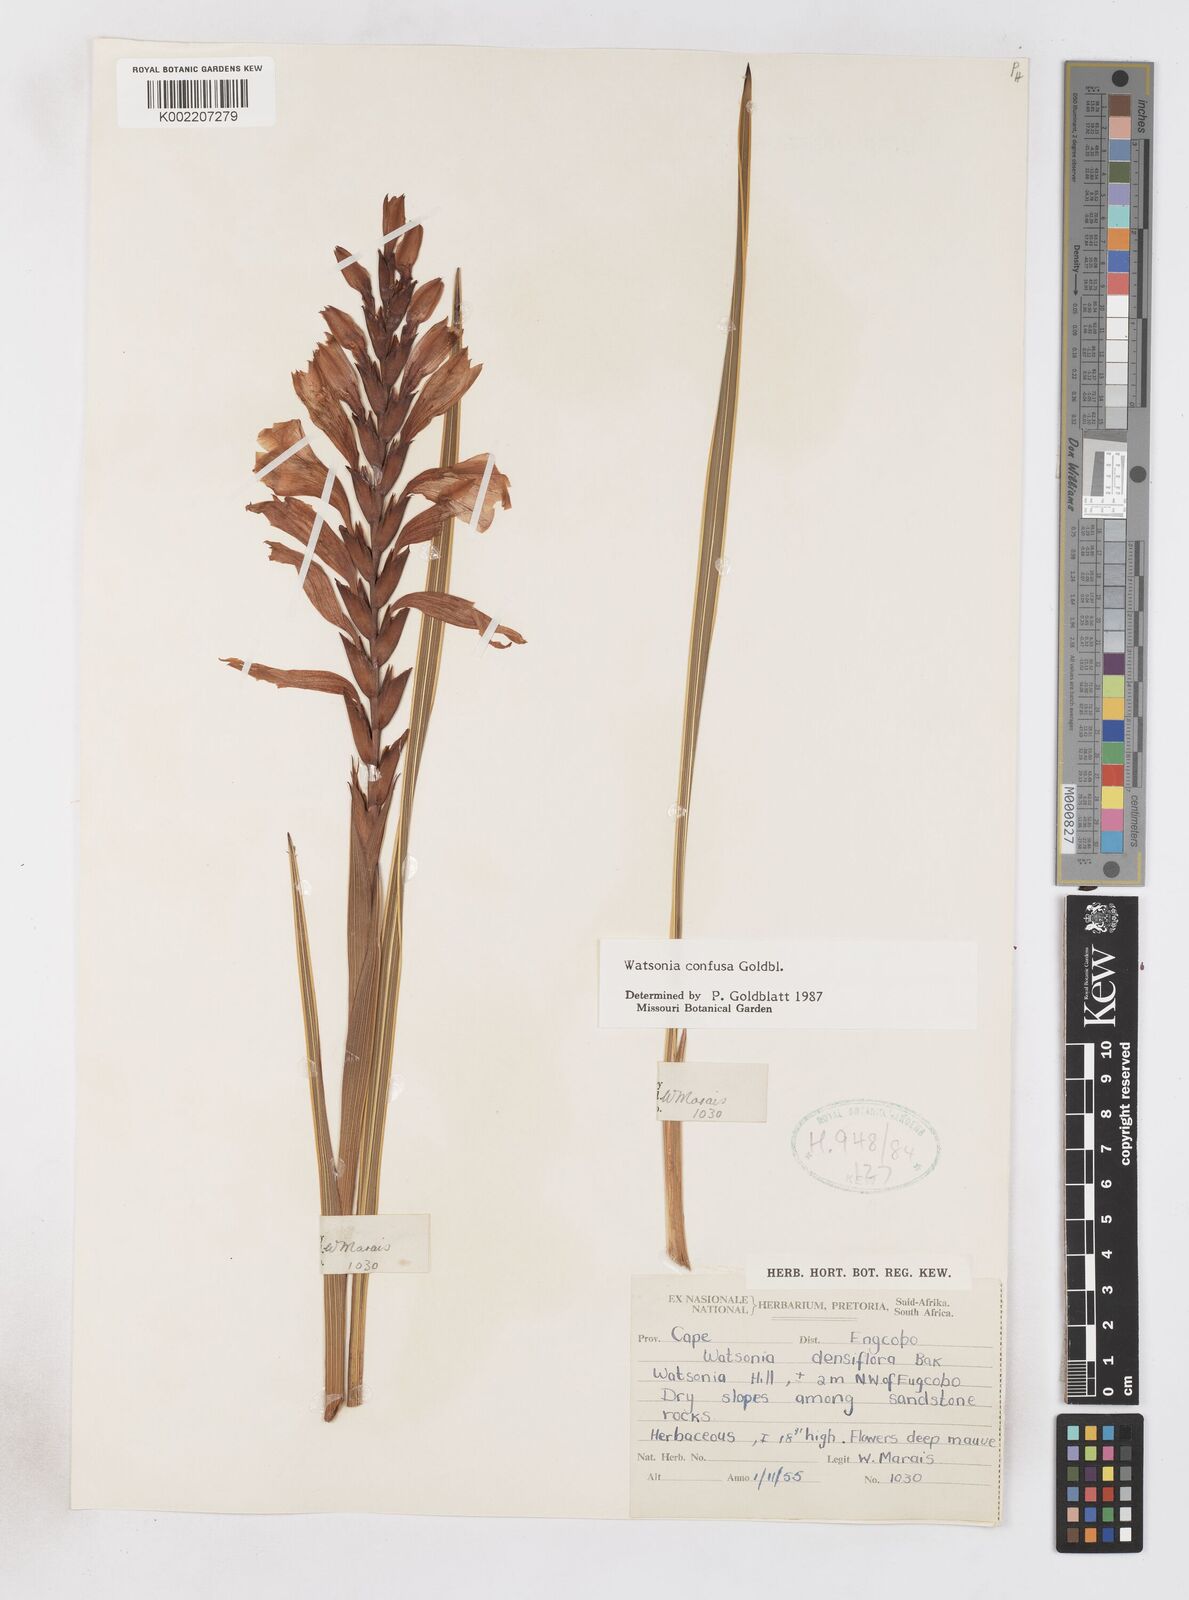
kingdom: Plantae
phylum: Tracheophyta
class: Liliopsida
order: Asparagales
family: Iridaceae
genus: Watsonia
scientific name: Watsonia confusa
